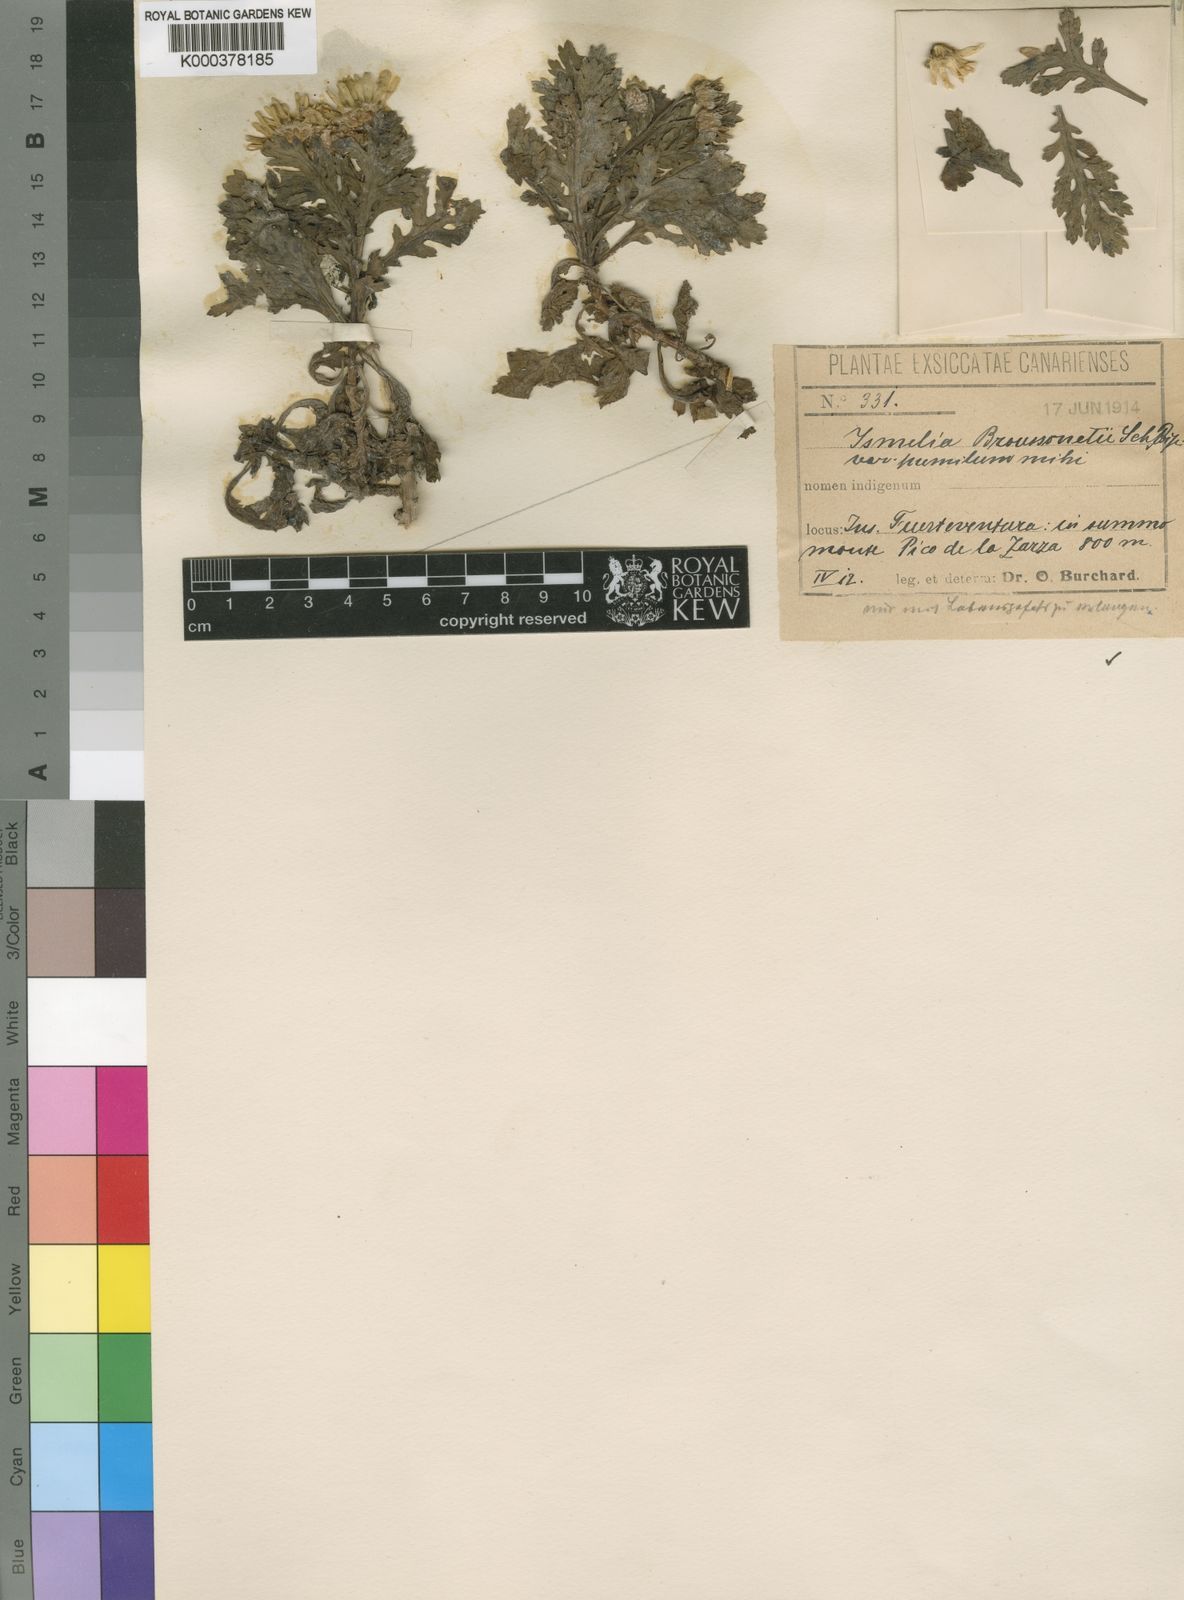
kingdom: Plantae
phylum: Tracheophyta
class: Magnoliopsida
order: Asterales
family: Asteraceae
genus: Argyranthemum
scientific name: Argyranthemum winteri
